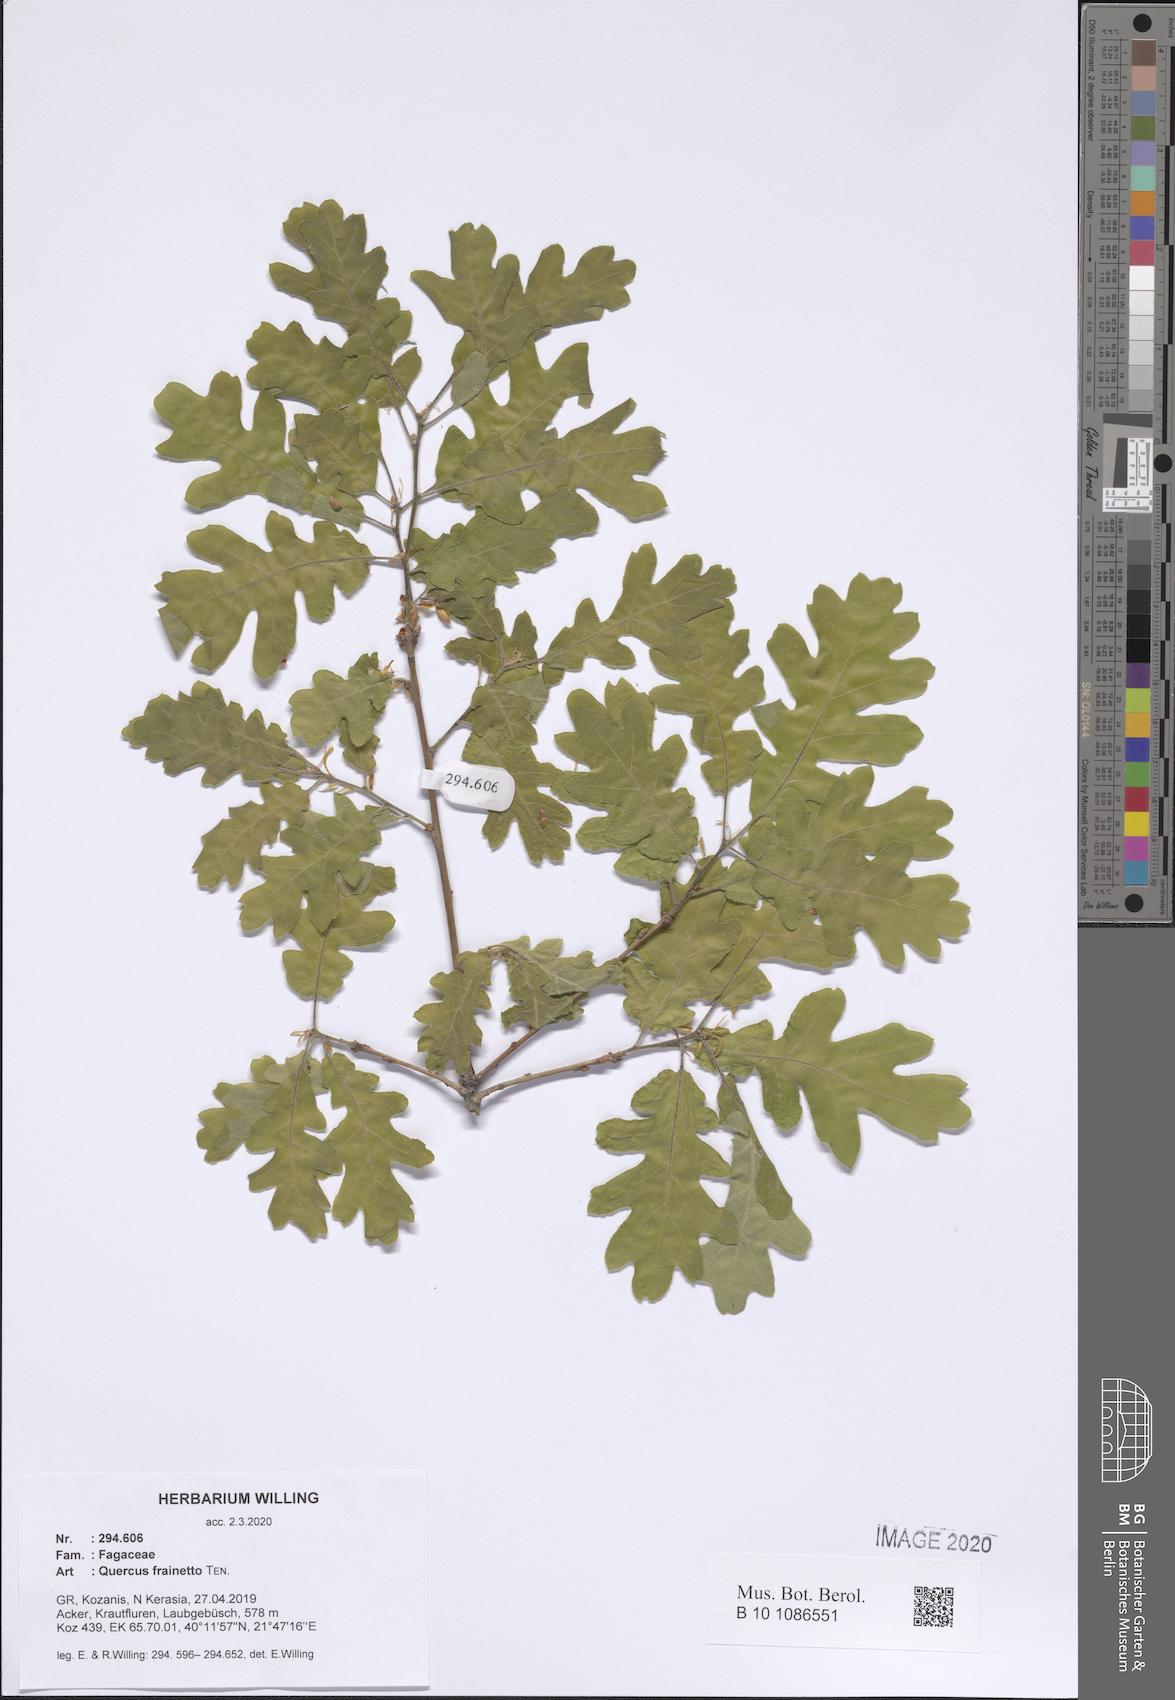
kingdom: Plantae
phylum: Tracheophyta
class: Magnoliopsida
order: Fagales
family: Fagaceae
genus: Quercus
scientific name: Quercus conferta
